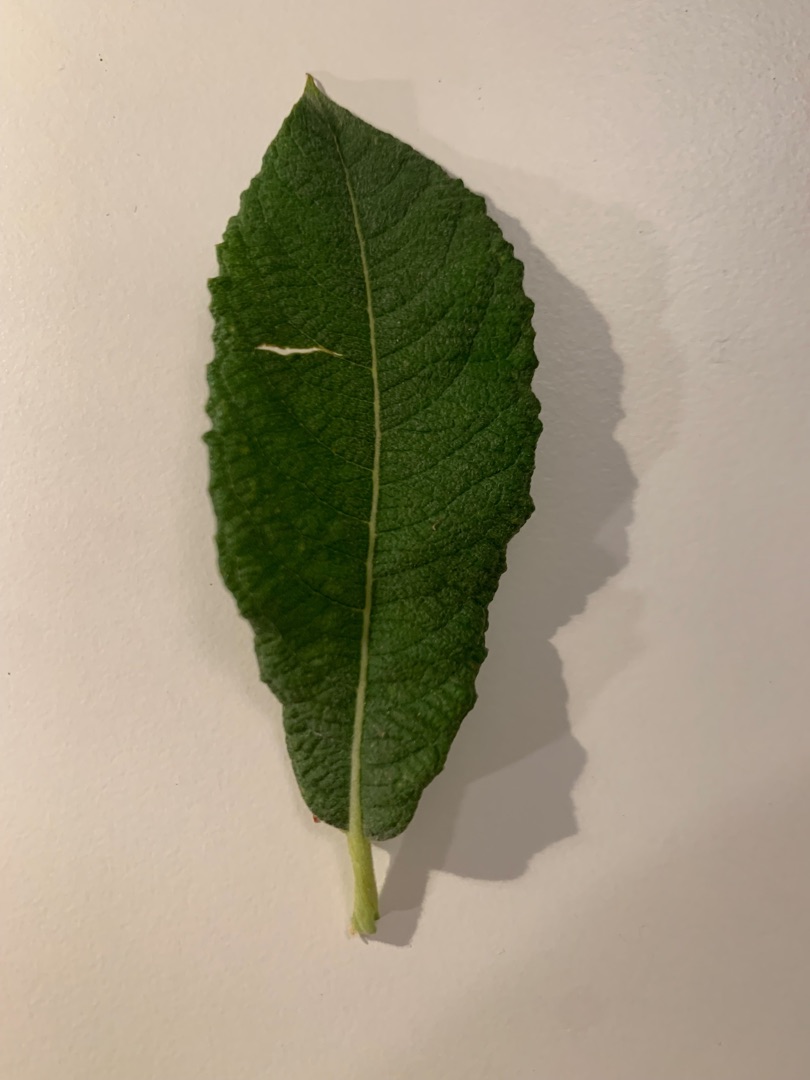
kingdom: Plantae
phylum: Tracheophyta
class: Magnoliopsida
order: Malpighiales
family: Salicaceae
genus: Salix
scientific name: Salix cinerea
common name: Grå-pil
